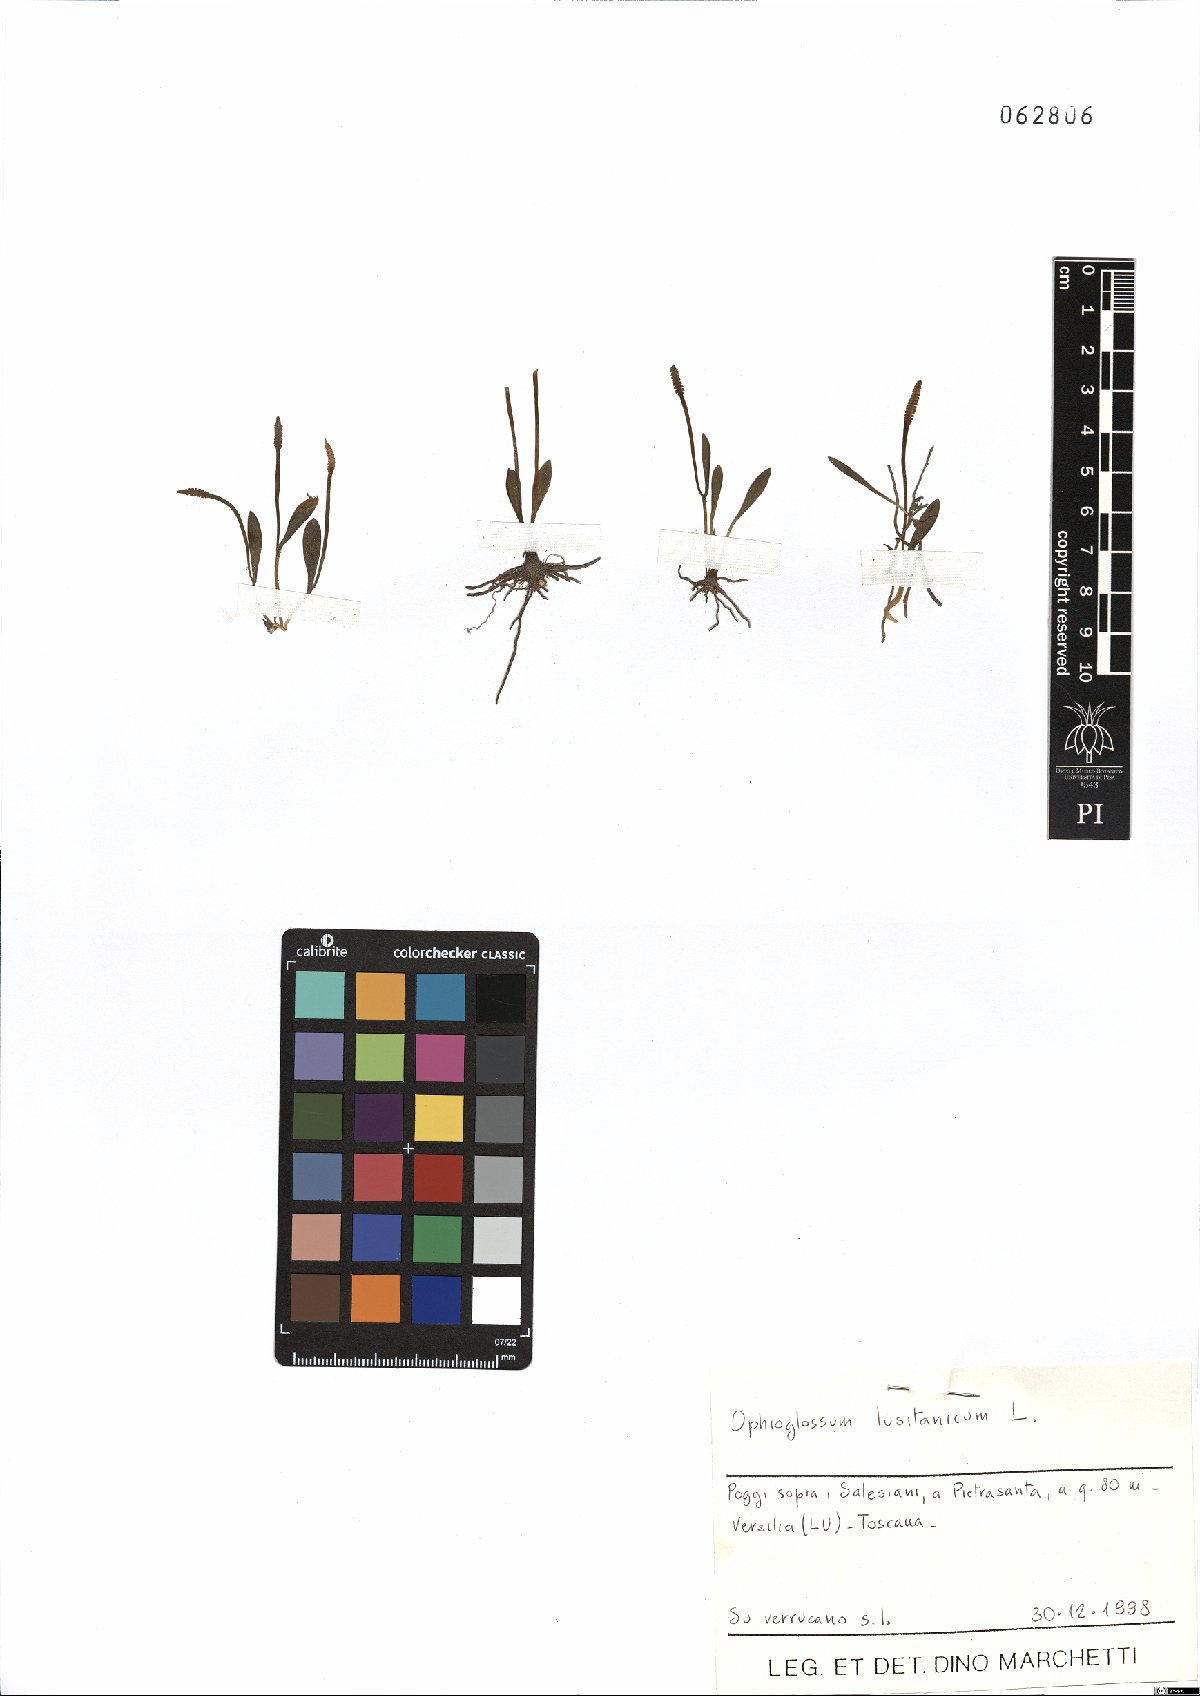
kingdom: Plantae
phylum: Tracheophyta
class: Polypodiopsida
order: Ophioglossales
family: Ophioglossaceae
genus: Ophioglossum
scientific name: Ophioglossum lusitanicum
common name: Least adder's-tongue
